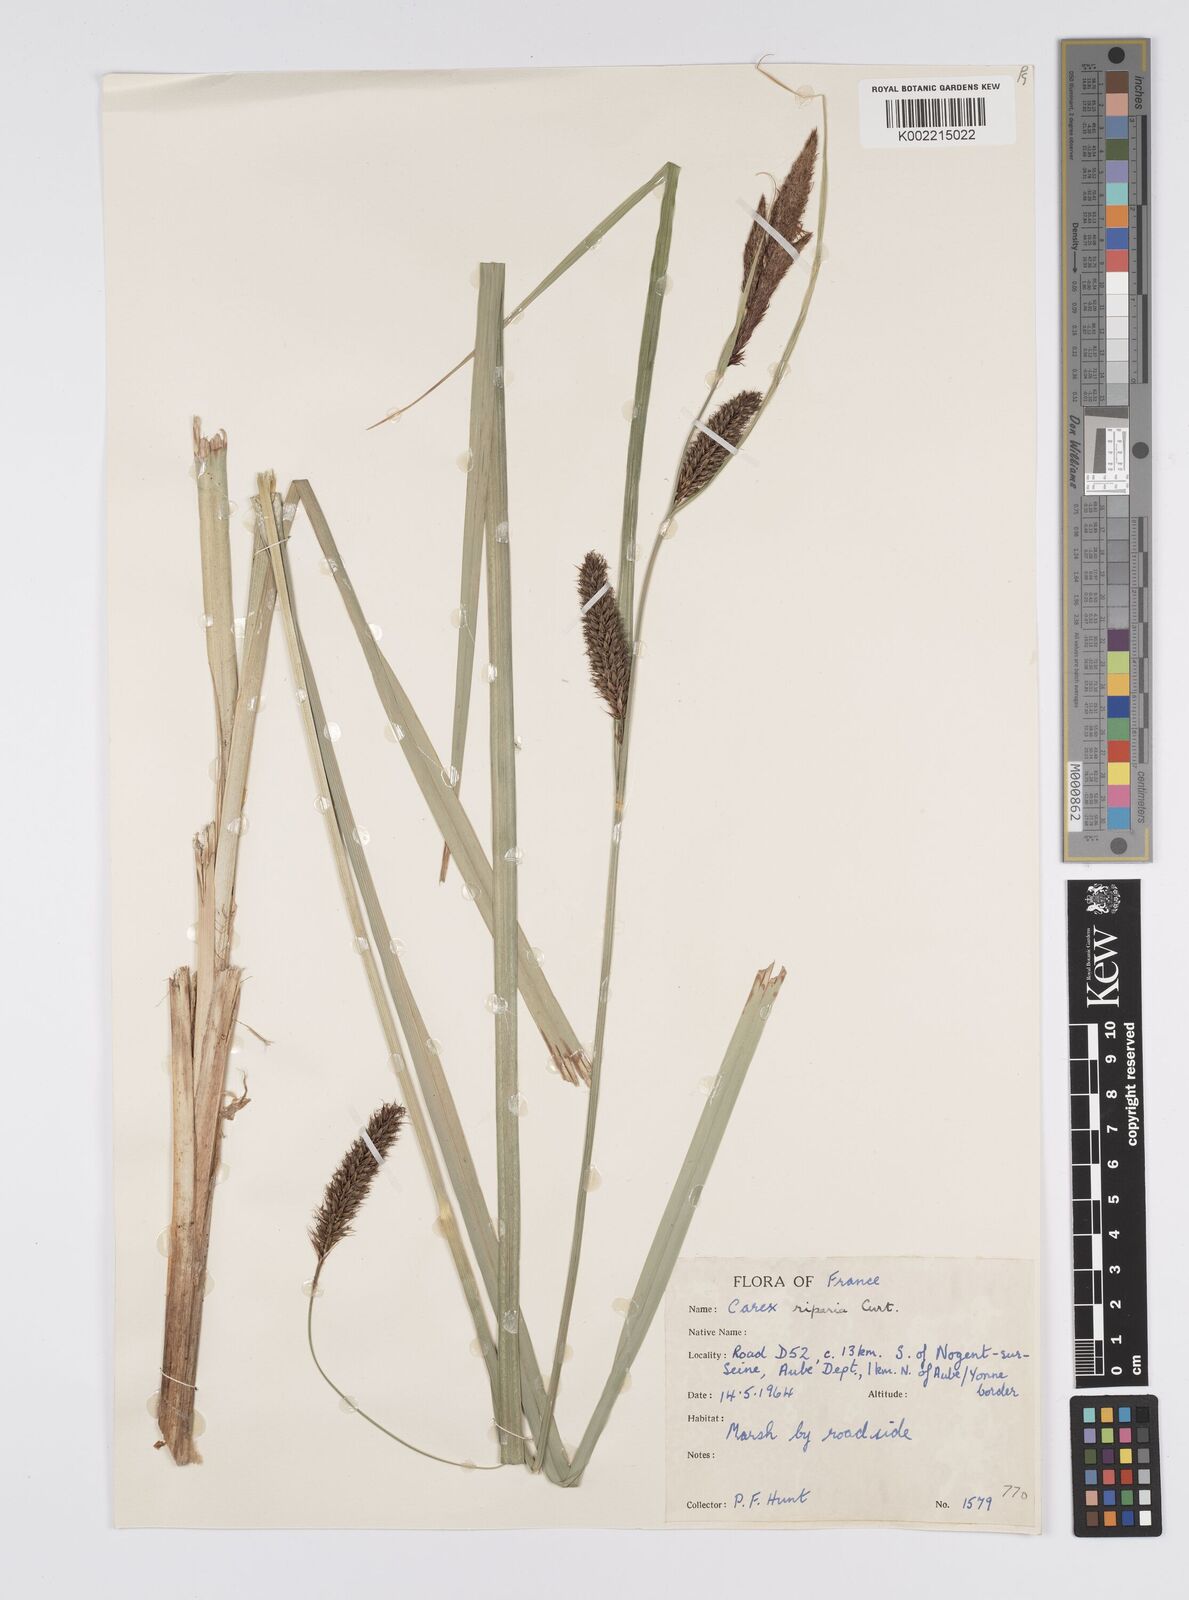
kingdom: Plantae
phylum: Tracheophyta
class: Liliopsida
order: Poales
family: Cyperaceae
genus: Carex
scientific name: Carex riparia
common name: Greater pond-sedge
